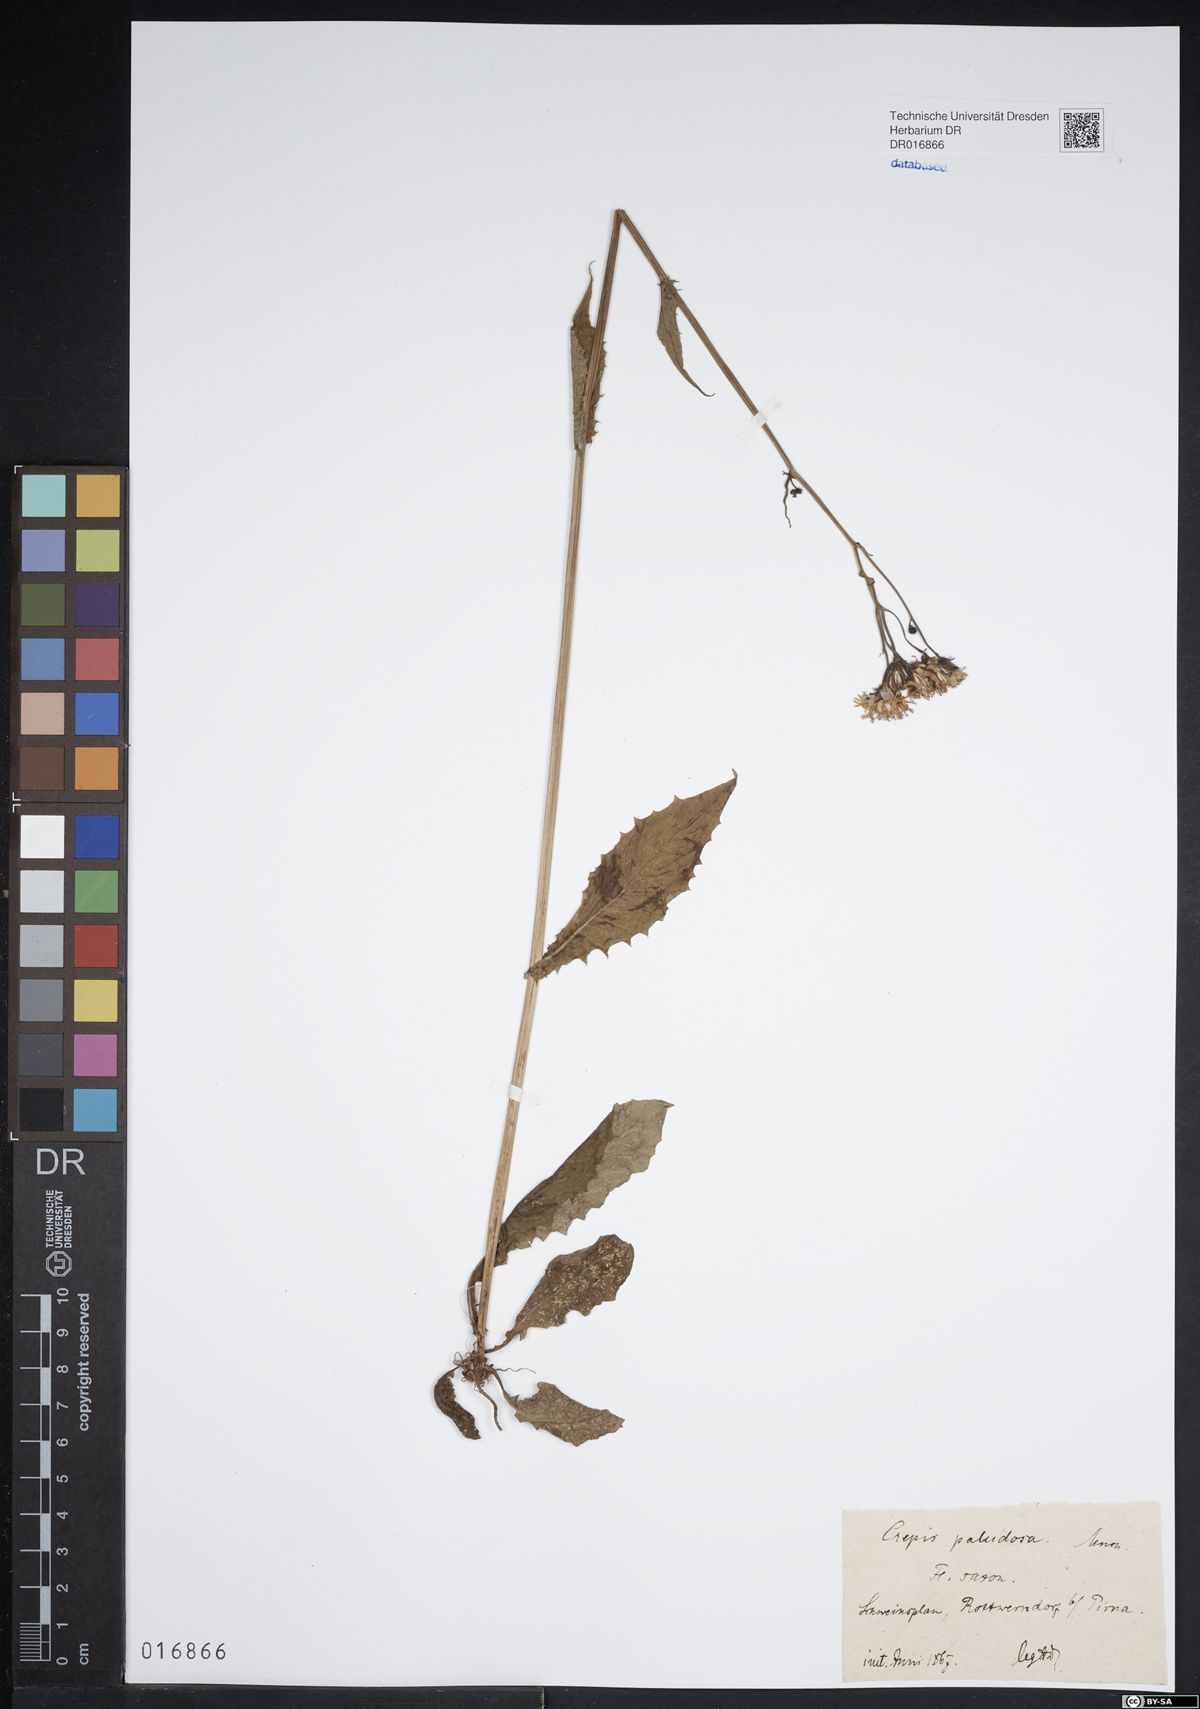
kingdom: Plantae
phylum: Tracheophyta
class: Magnoliopsida
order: Asterales
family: Asteraceae
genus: Crepis
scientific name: Crepis paludosa
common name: Marsh hawk's-beard
